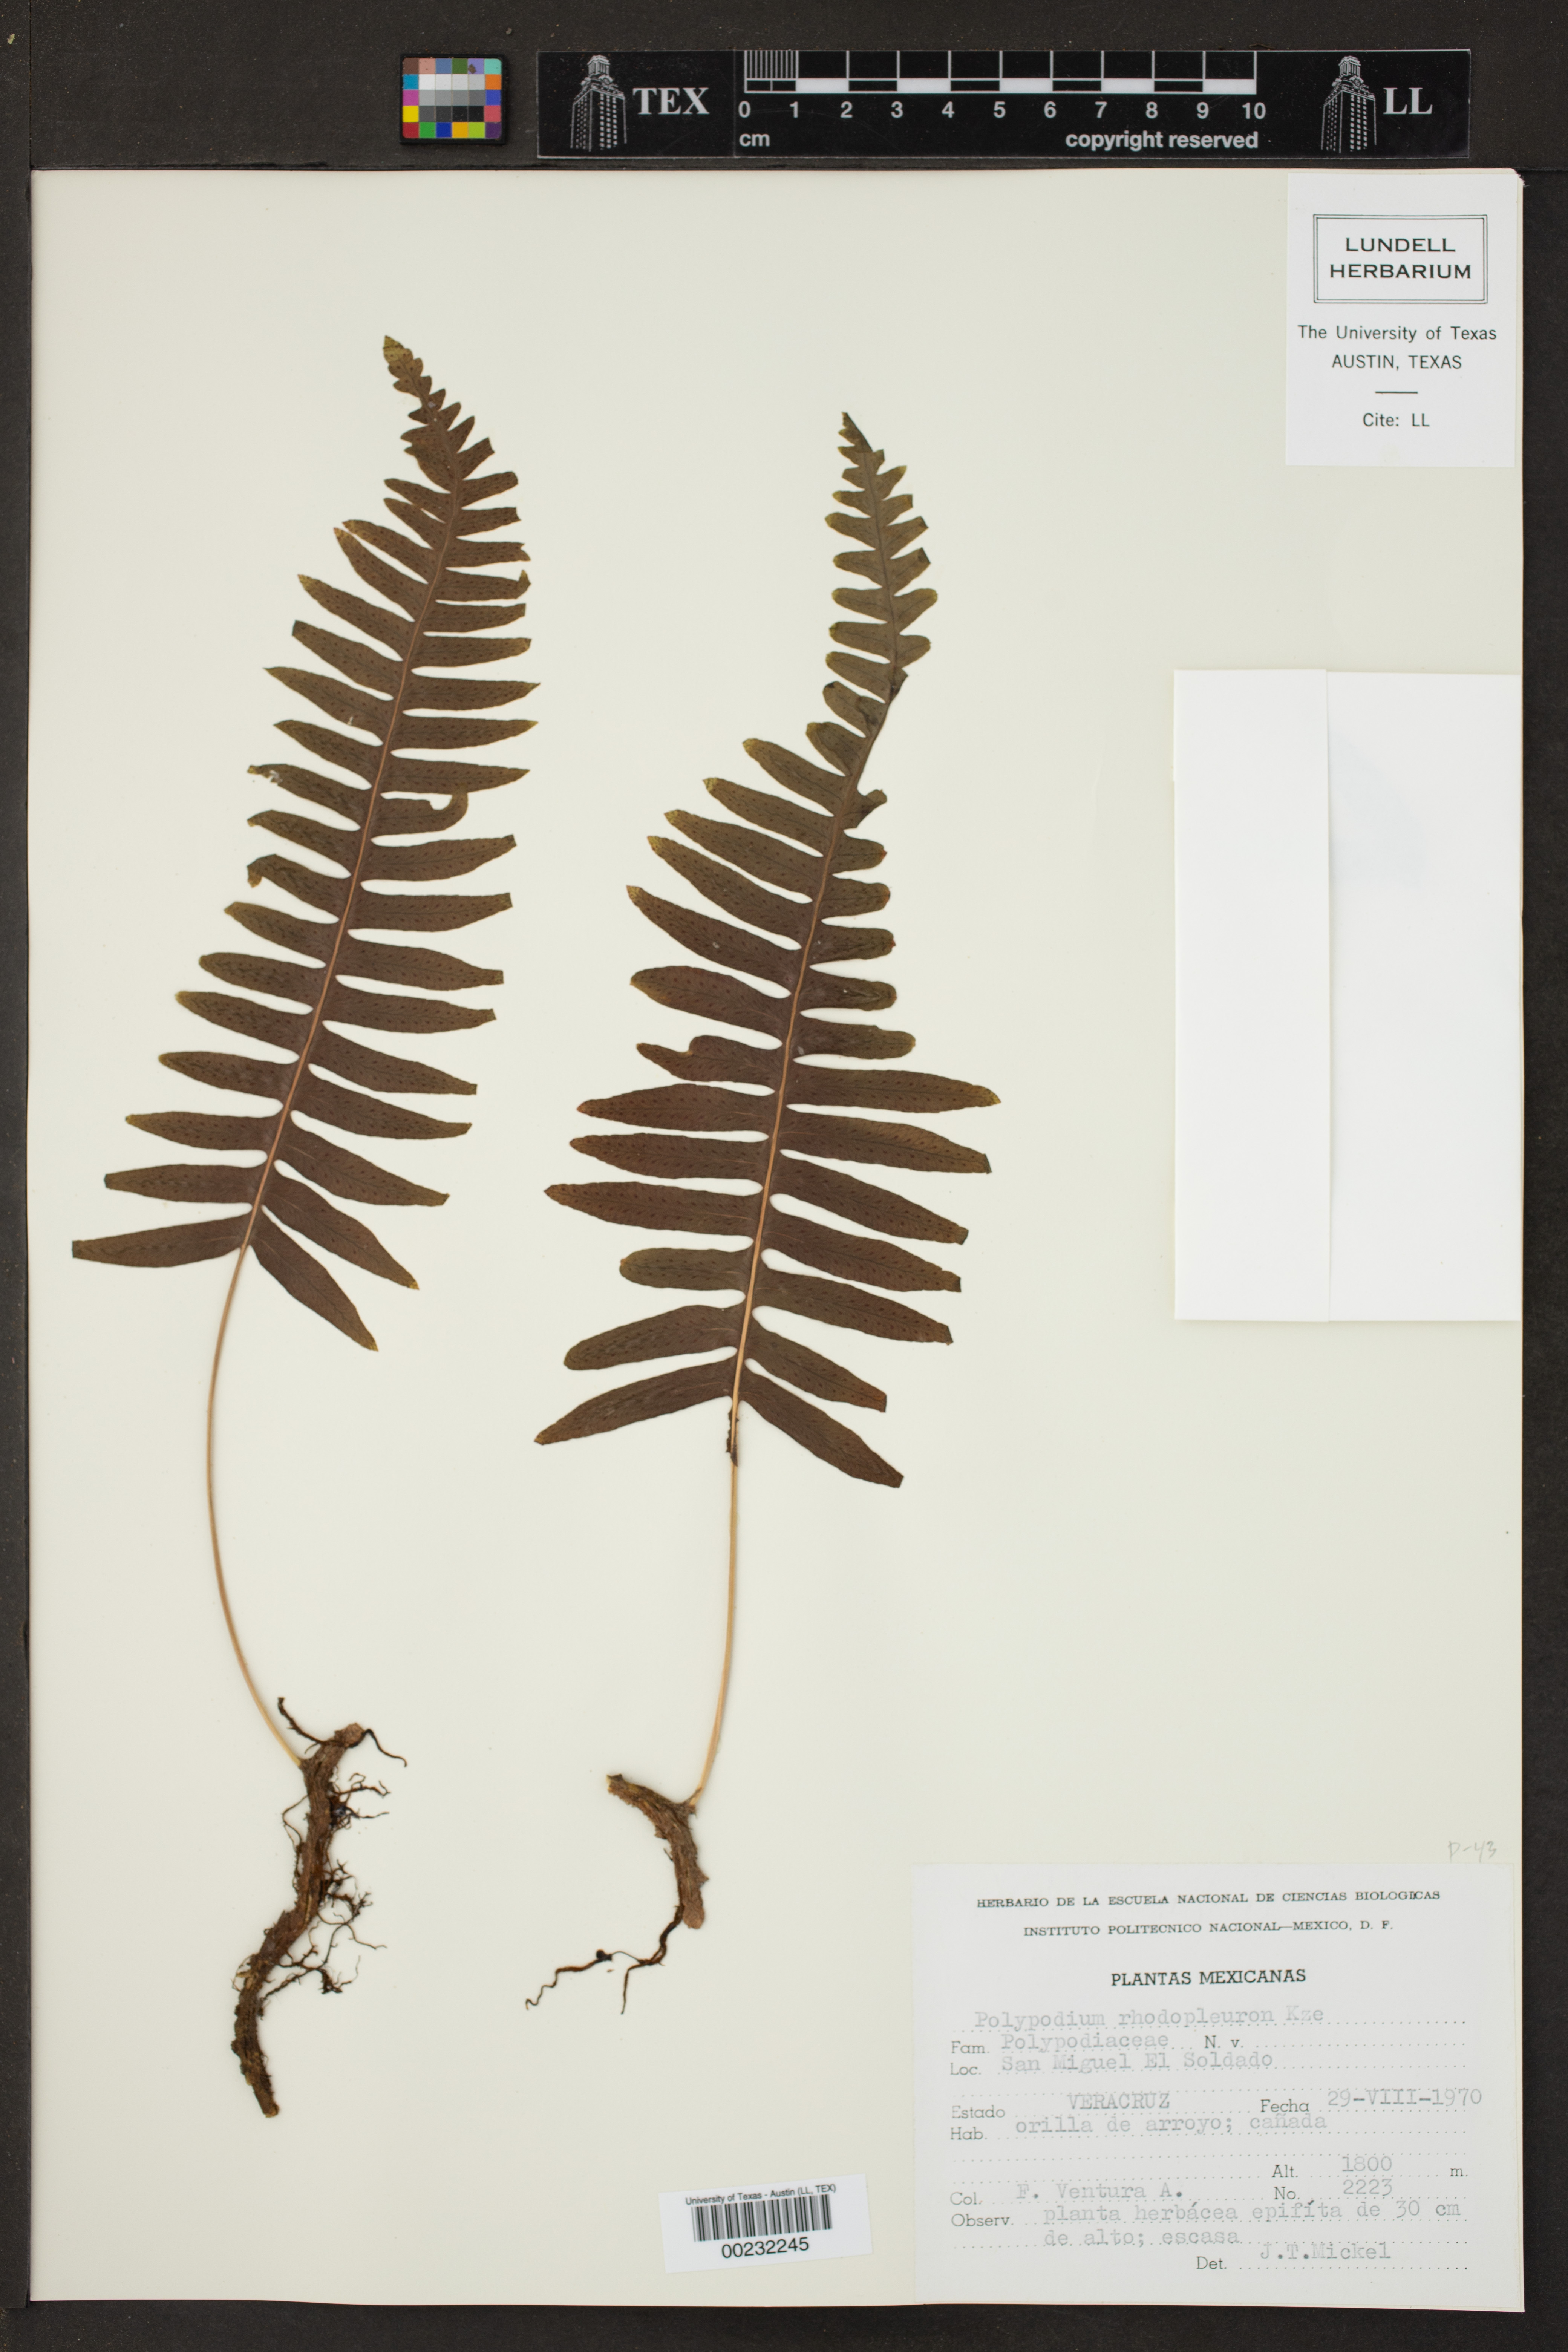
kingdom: Plantae
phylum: Tracheophyta
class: Polypodiopsida
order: Polypodiales
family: Polypodiaceae
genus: Polypodium
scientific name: Polypodium rhodopleuron
